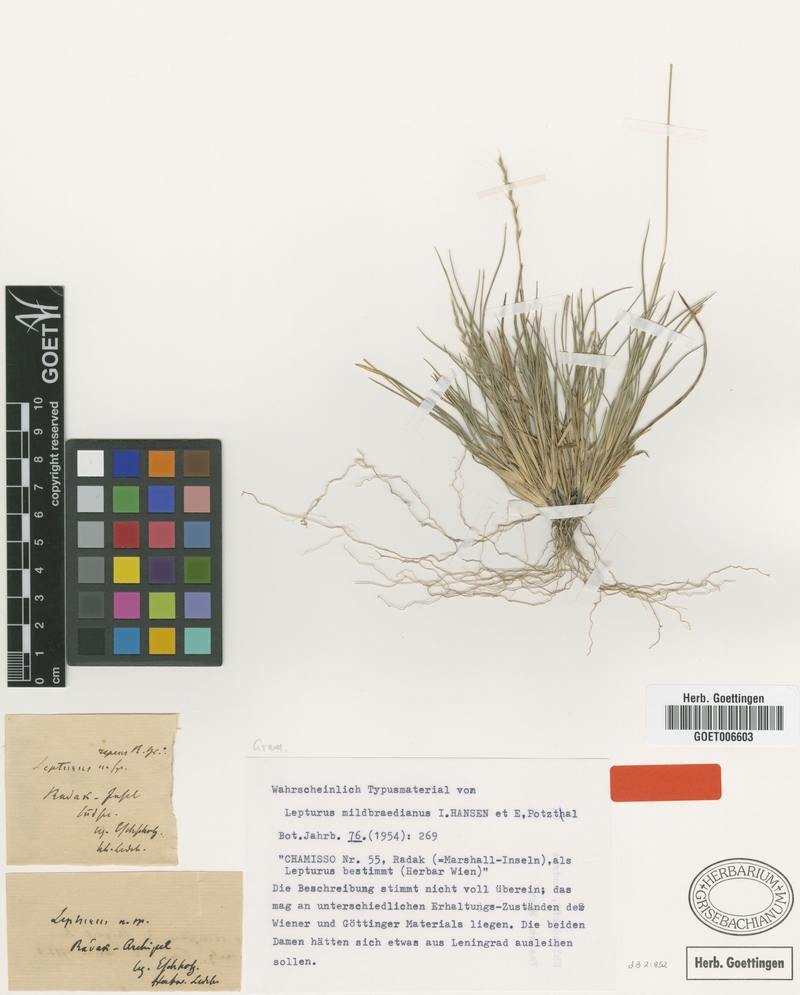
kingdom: Plantae
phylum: Tracheophyta
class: Liliopsida
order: Poales
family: Poaceae
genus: Lepturus
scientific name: Lepturus repens
